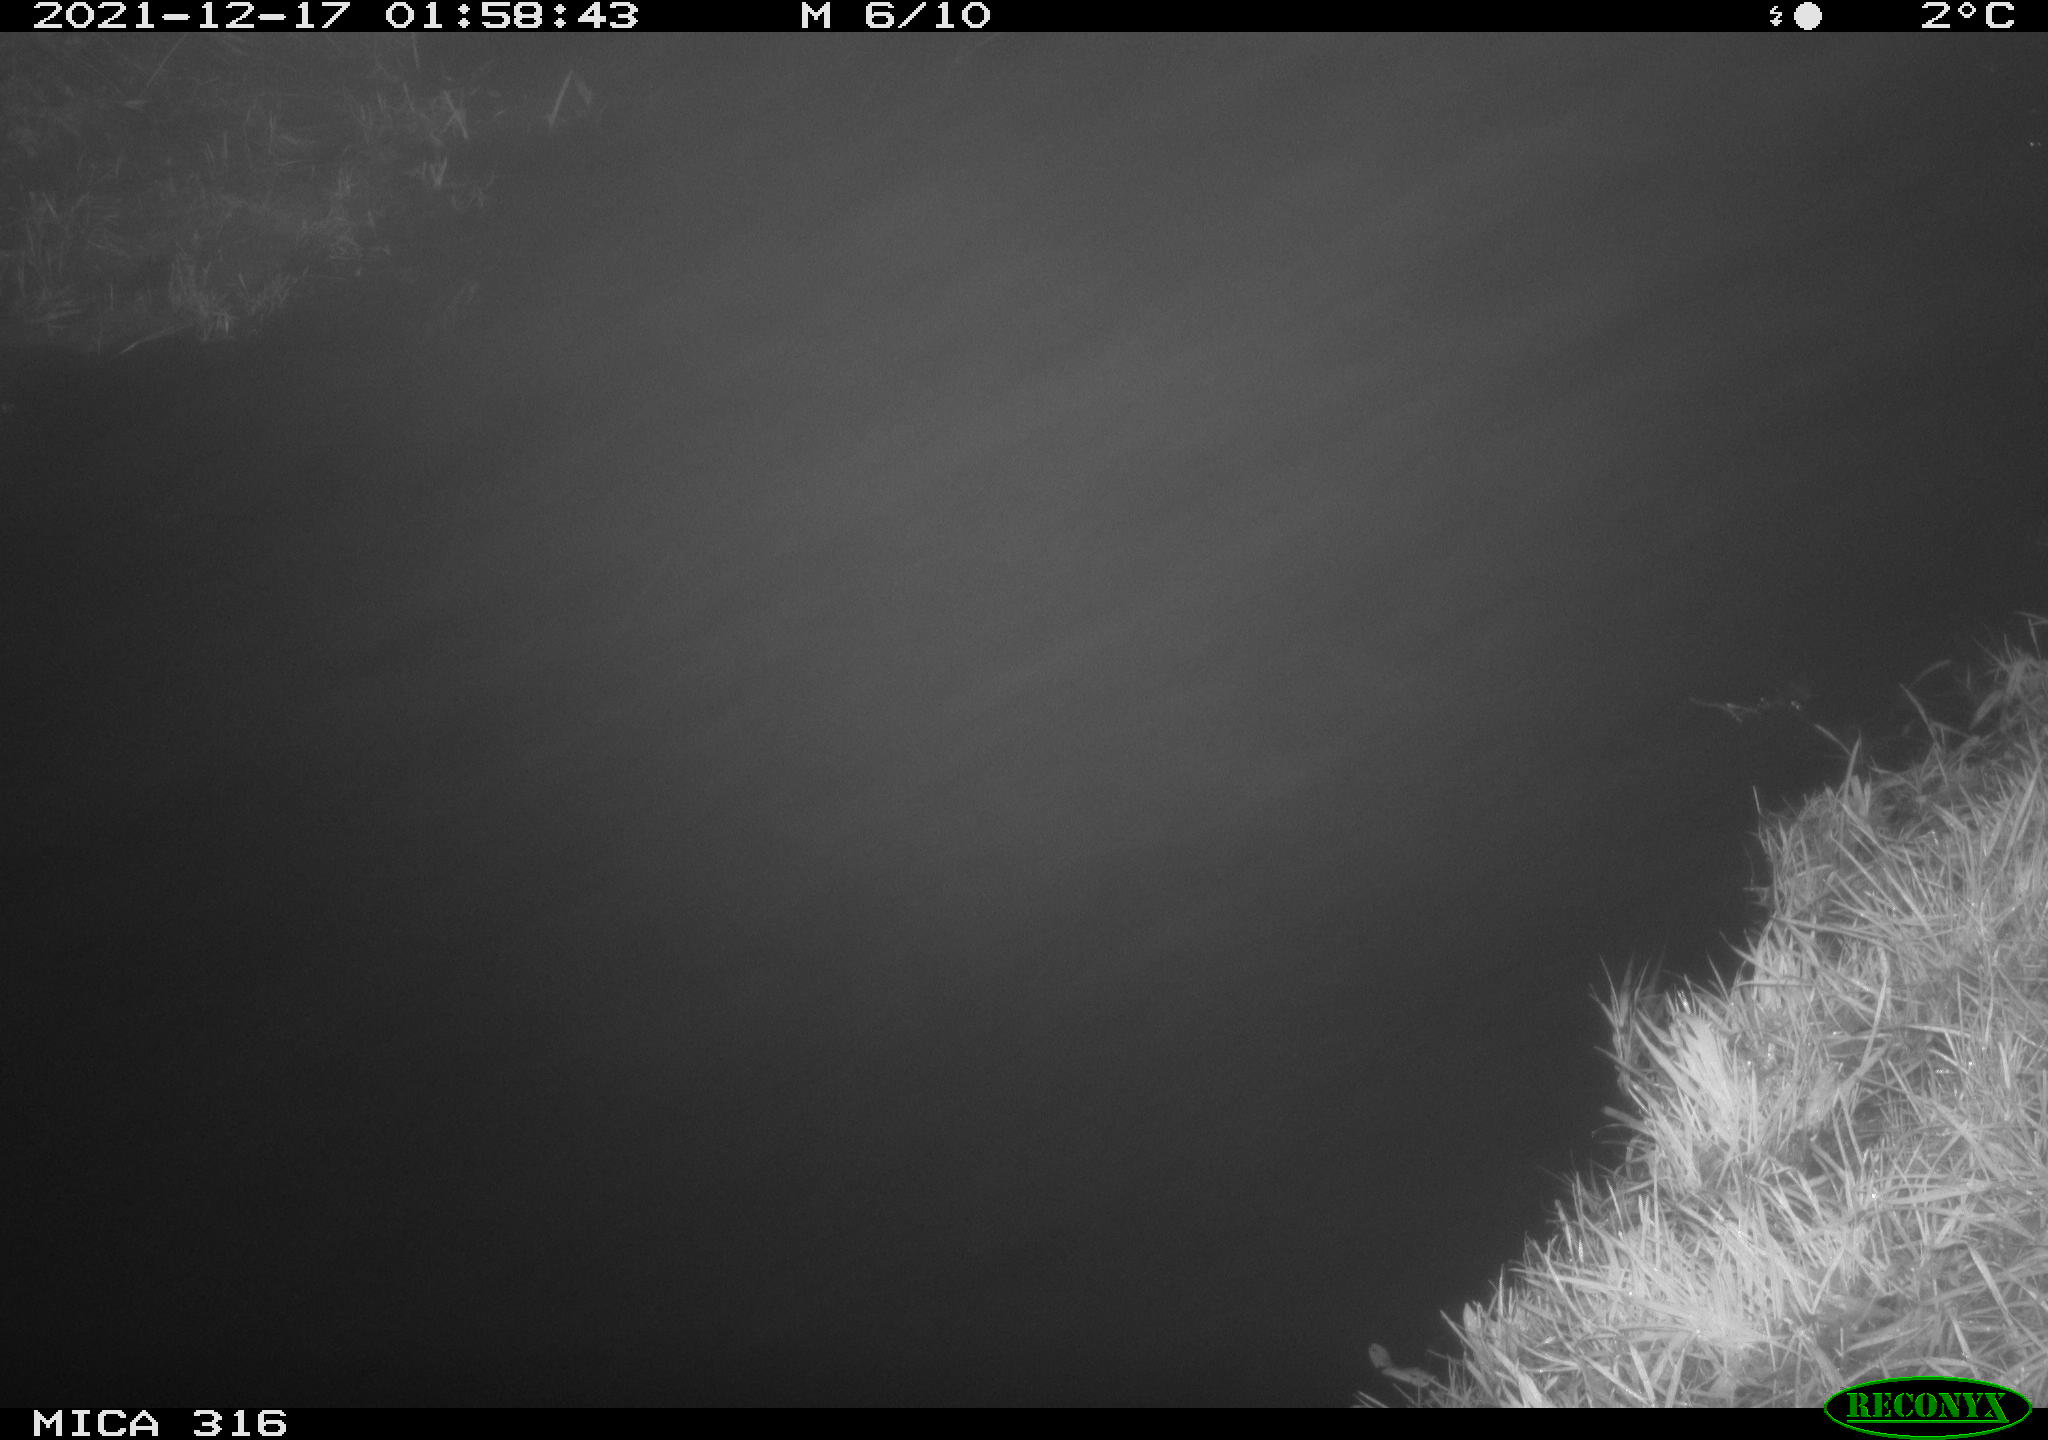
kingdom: Animalia
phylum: Chordata
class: Aves
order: Anseriformes
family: Anatidae
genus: Anas
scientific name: Anas platyrhynchos
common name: Mallard
